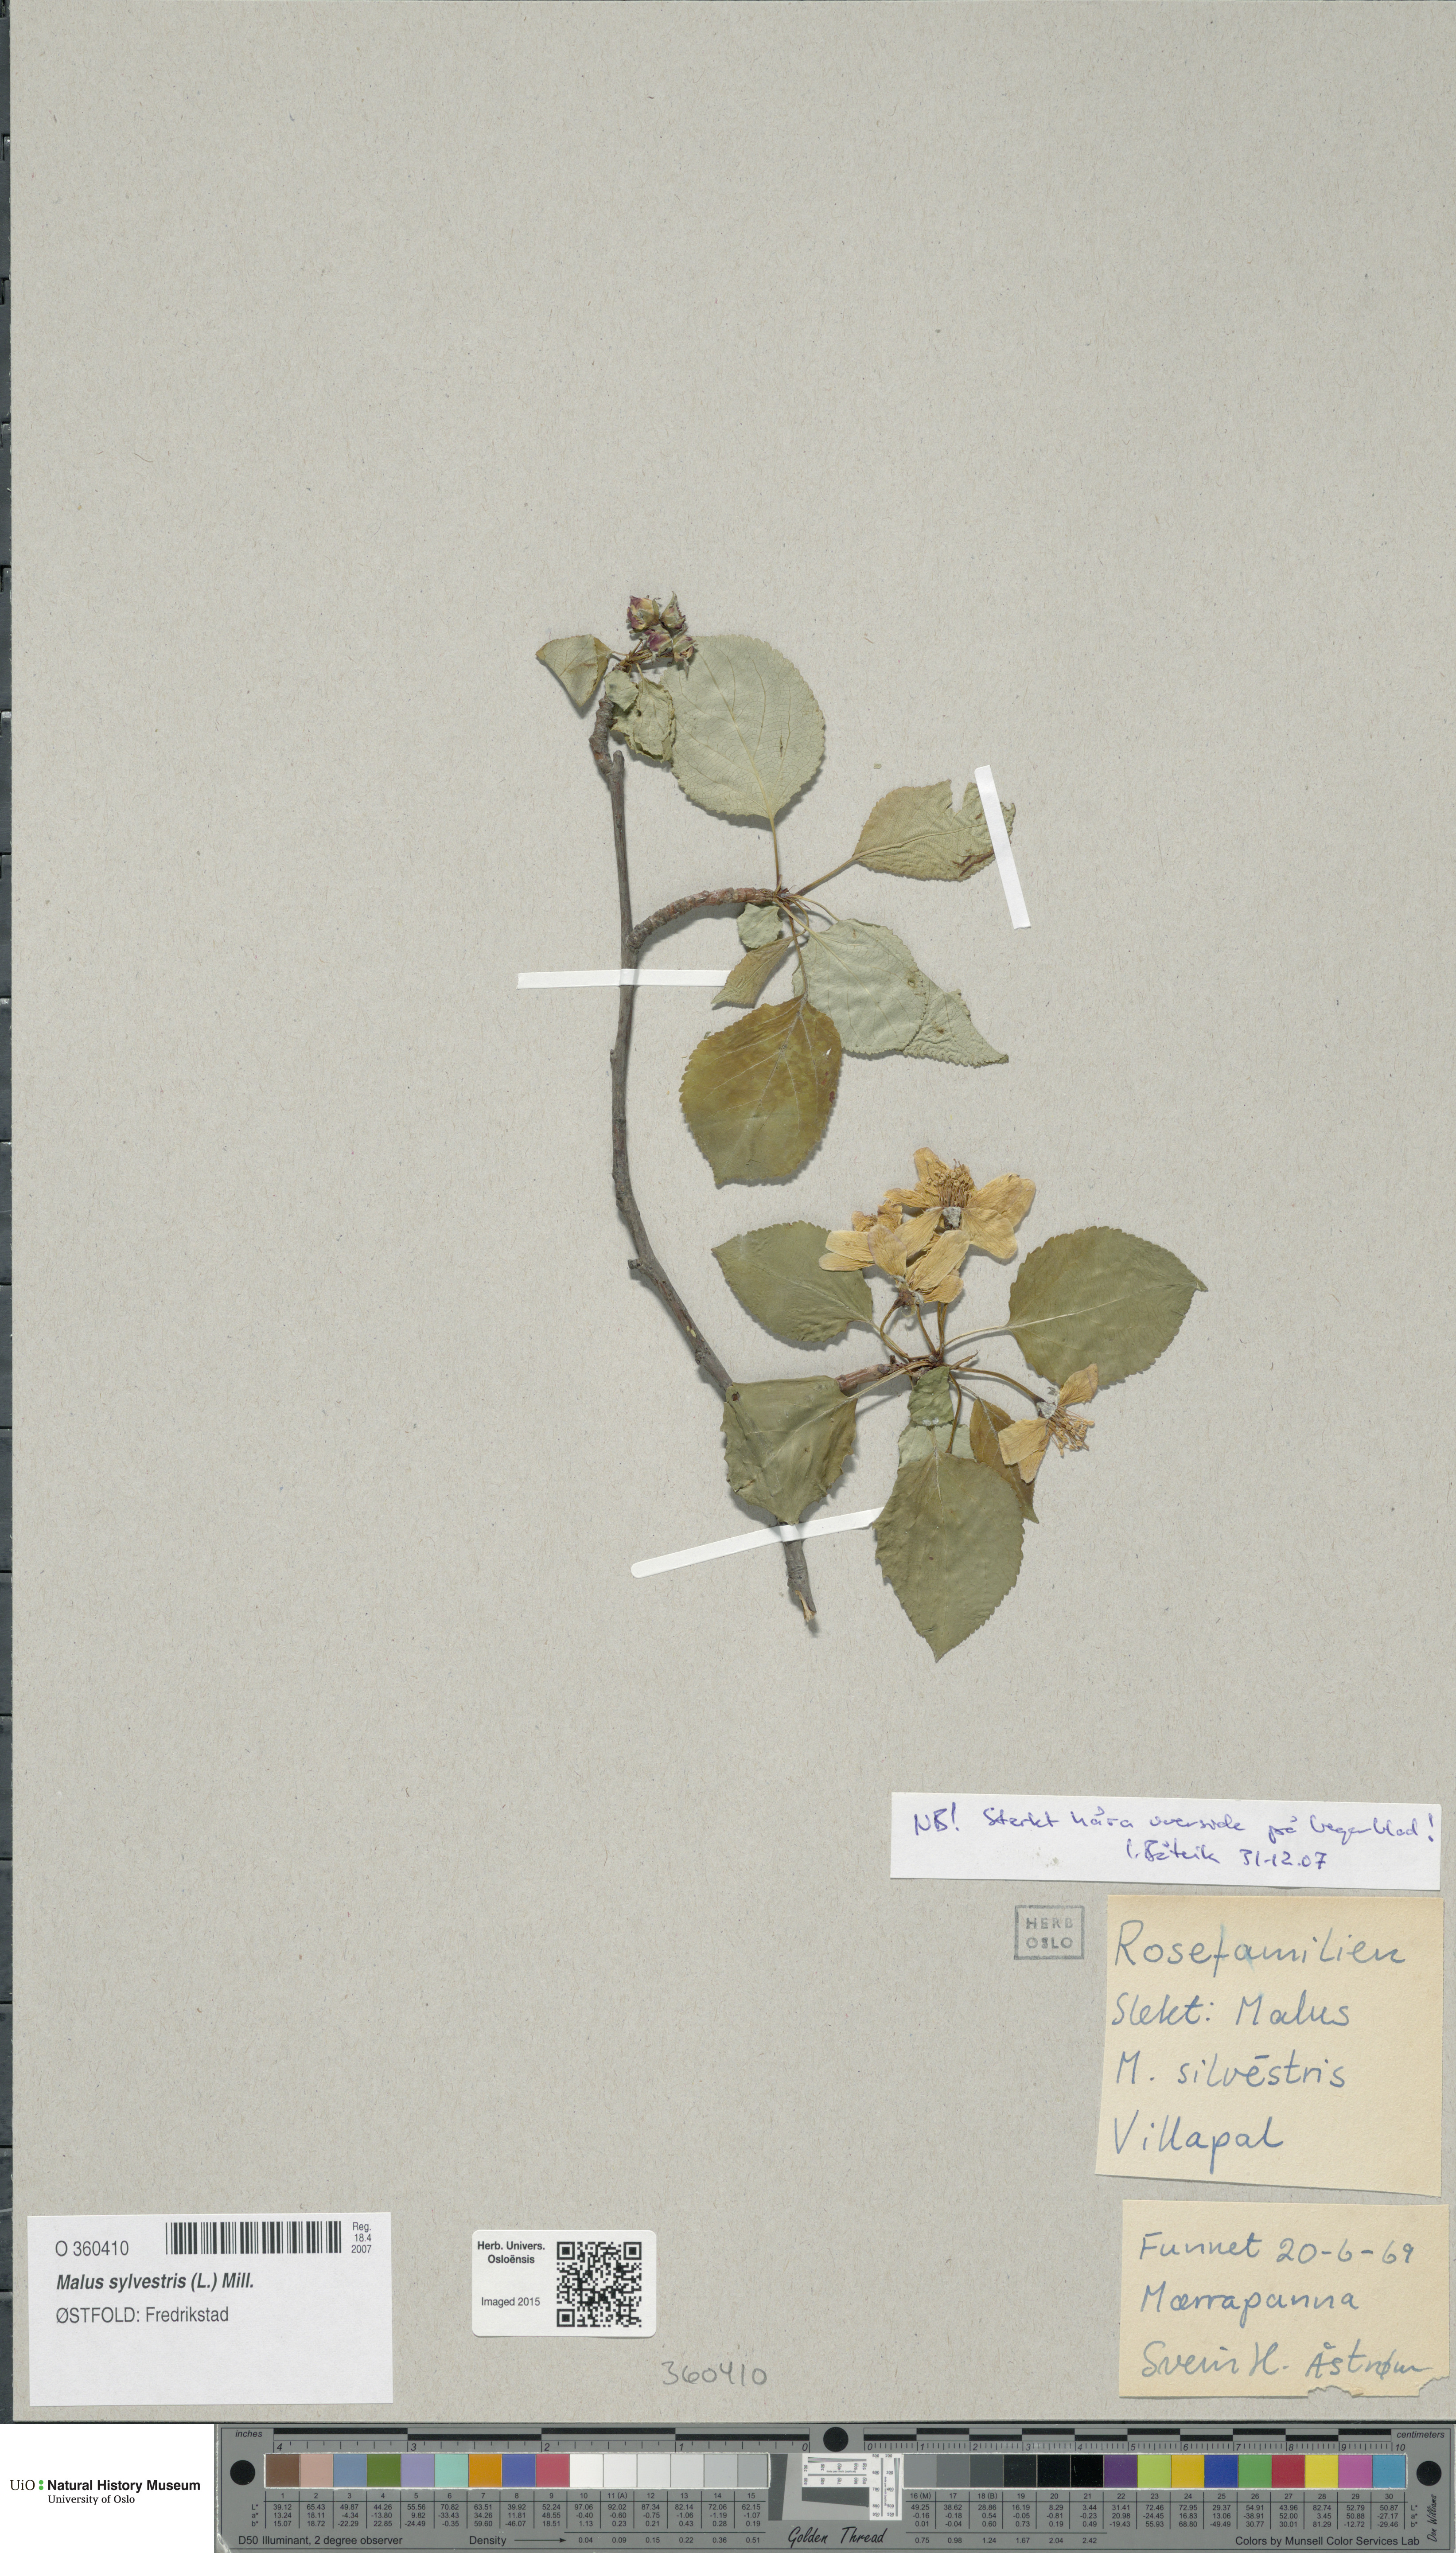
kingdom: Plantae
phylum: Tracheophyta
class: Magnoliopsida
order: Rosales
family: Rosaceae
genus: Malus
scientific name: Malus sylvestris
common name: Crab apple
